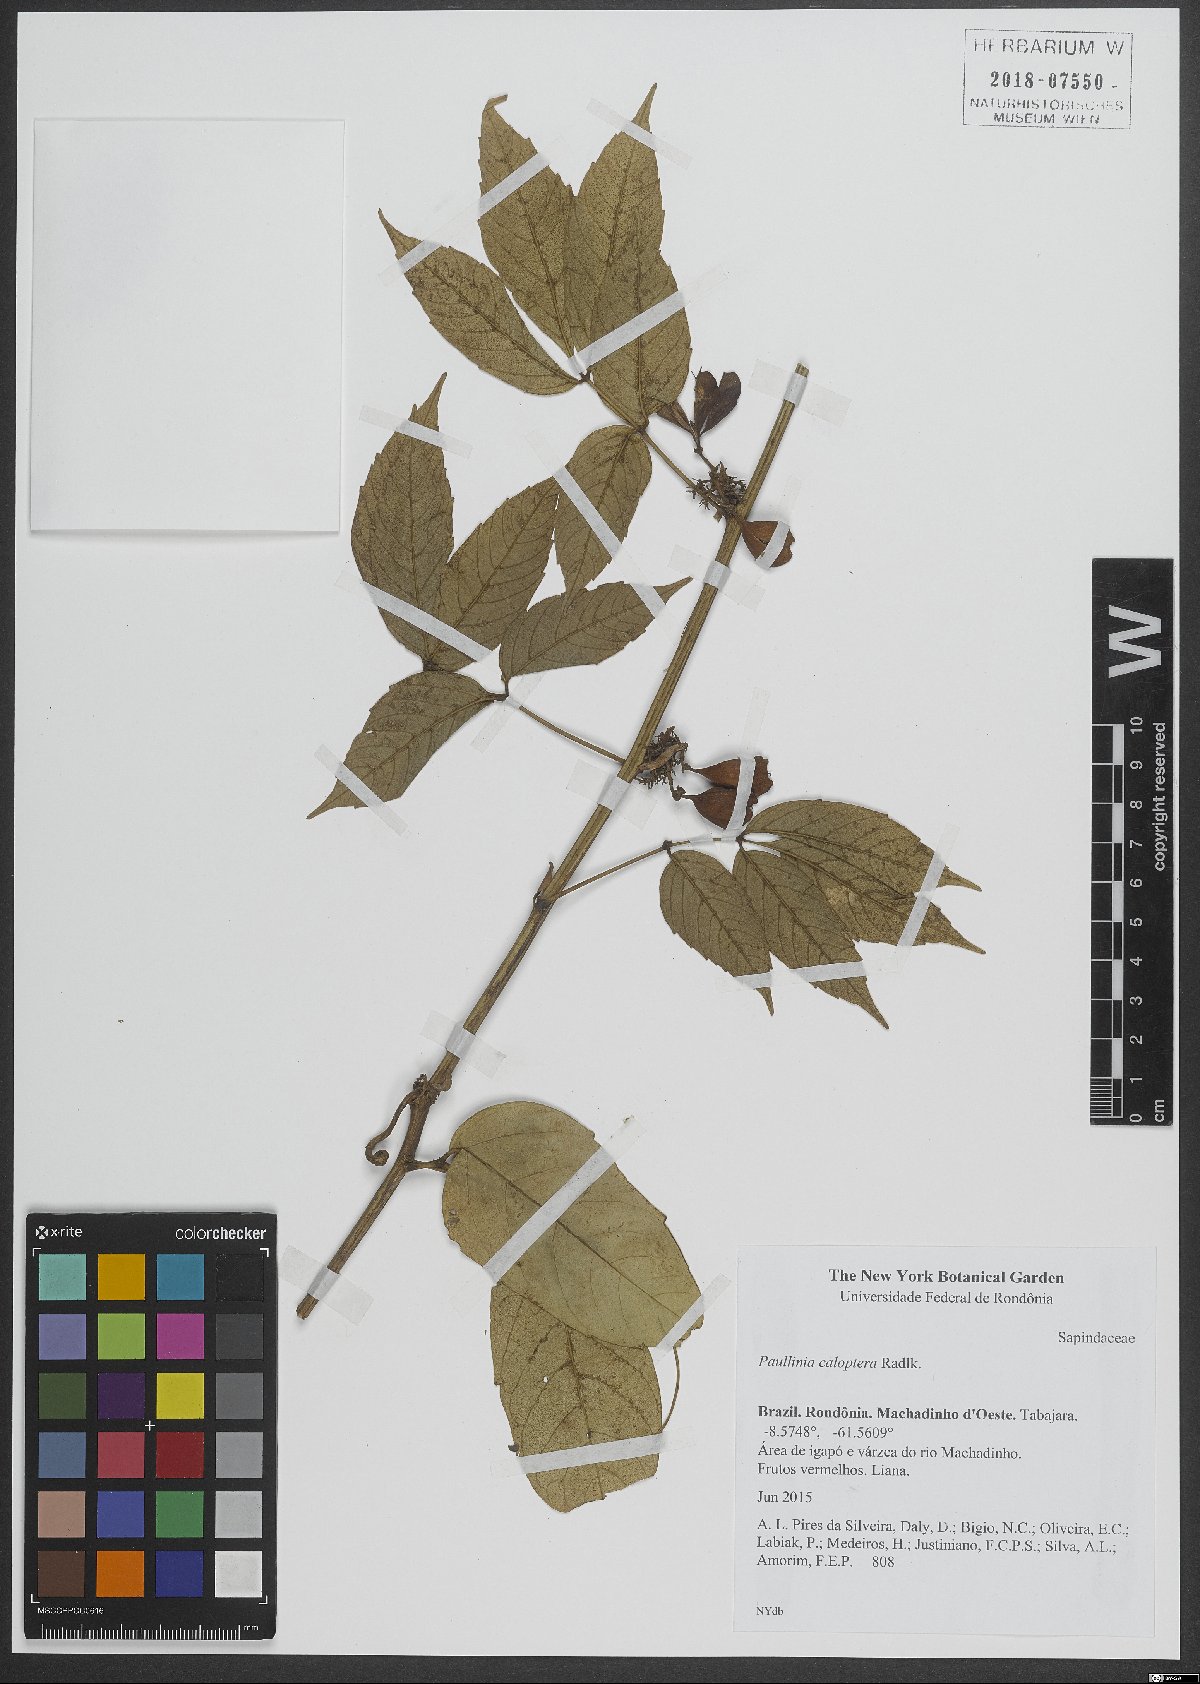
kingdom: Plantae
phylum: Tracheophyta
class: Magnoliopsida
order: Sapindales
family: Sapindaceae
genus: Paullinia
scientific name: Paullinia caloptera
